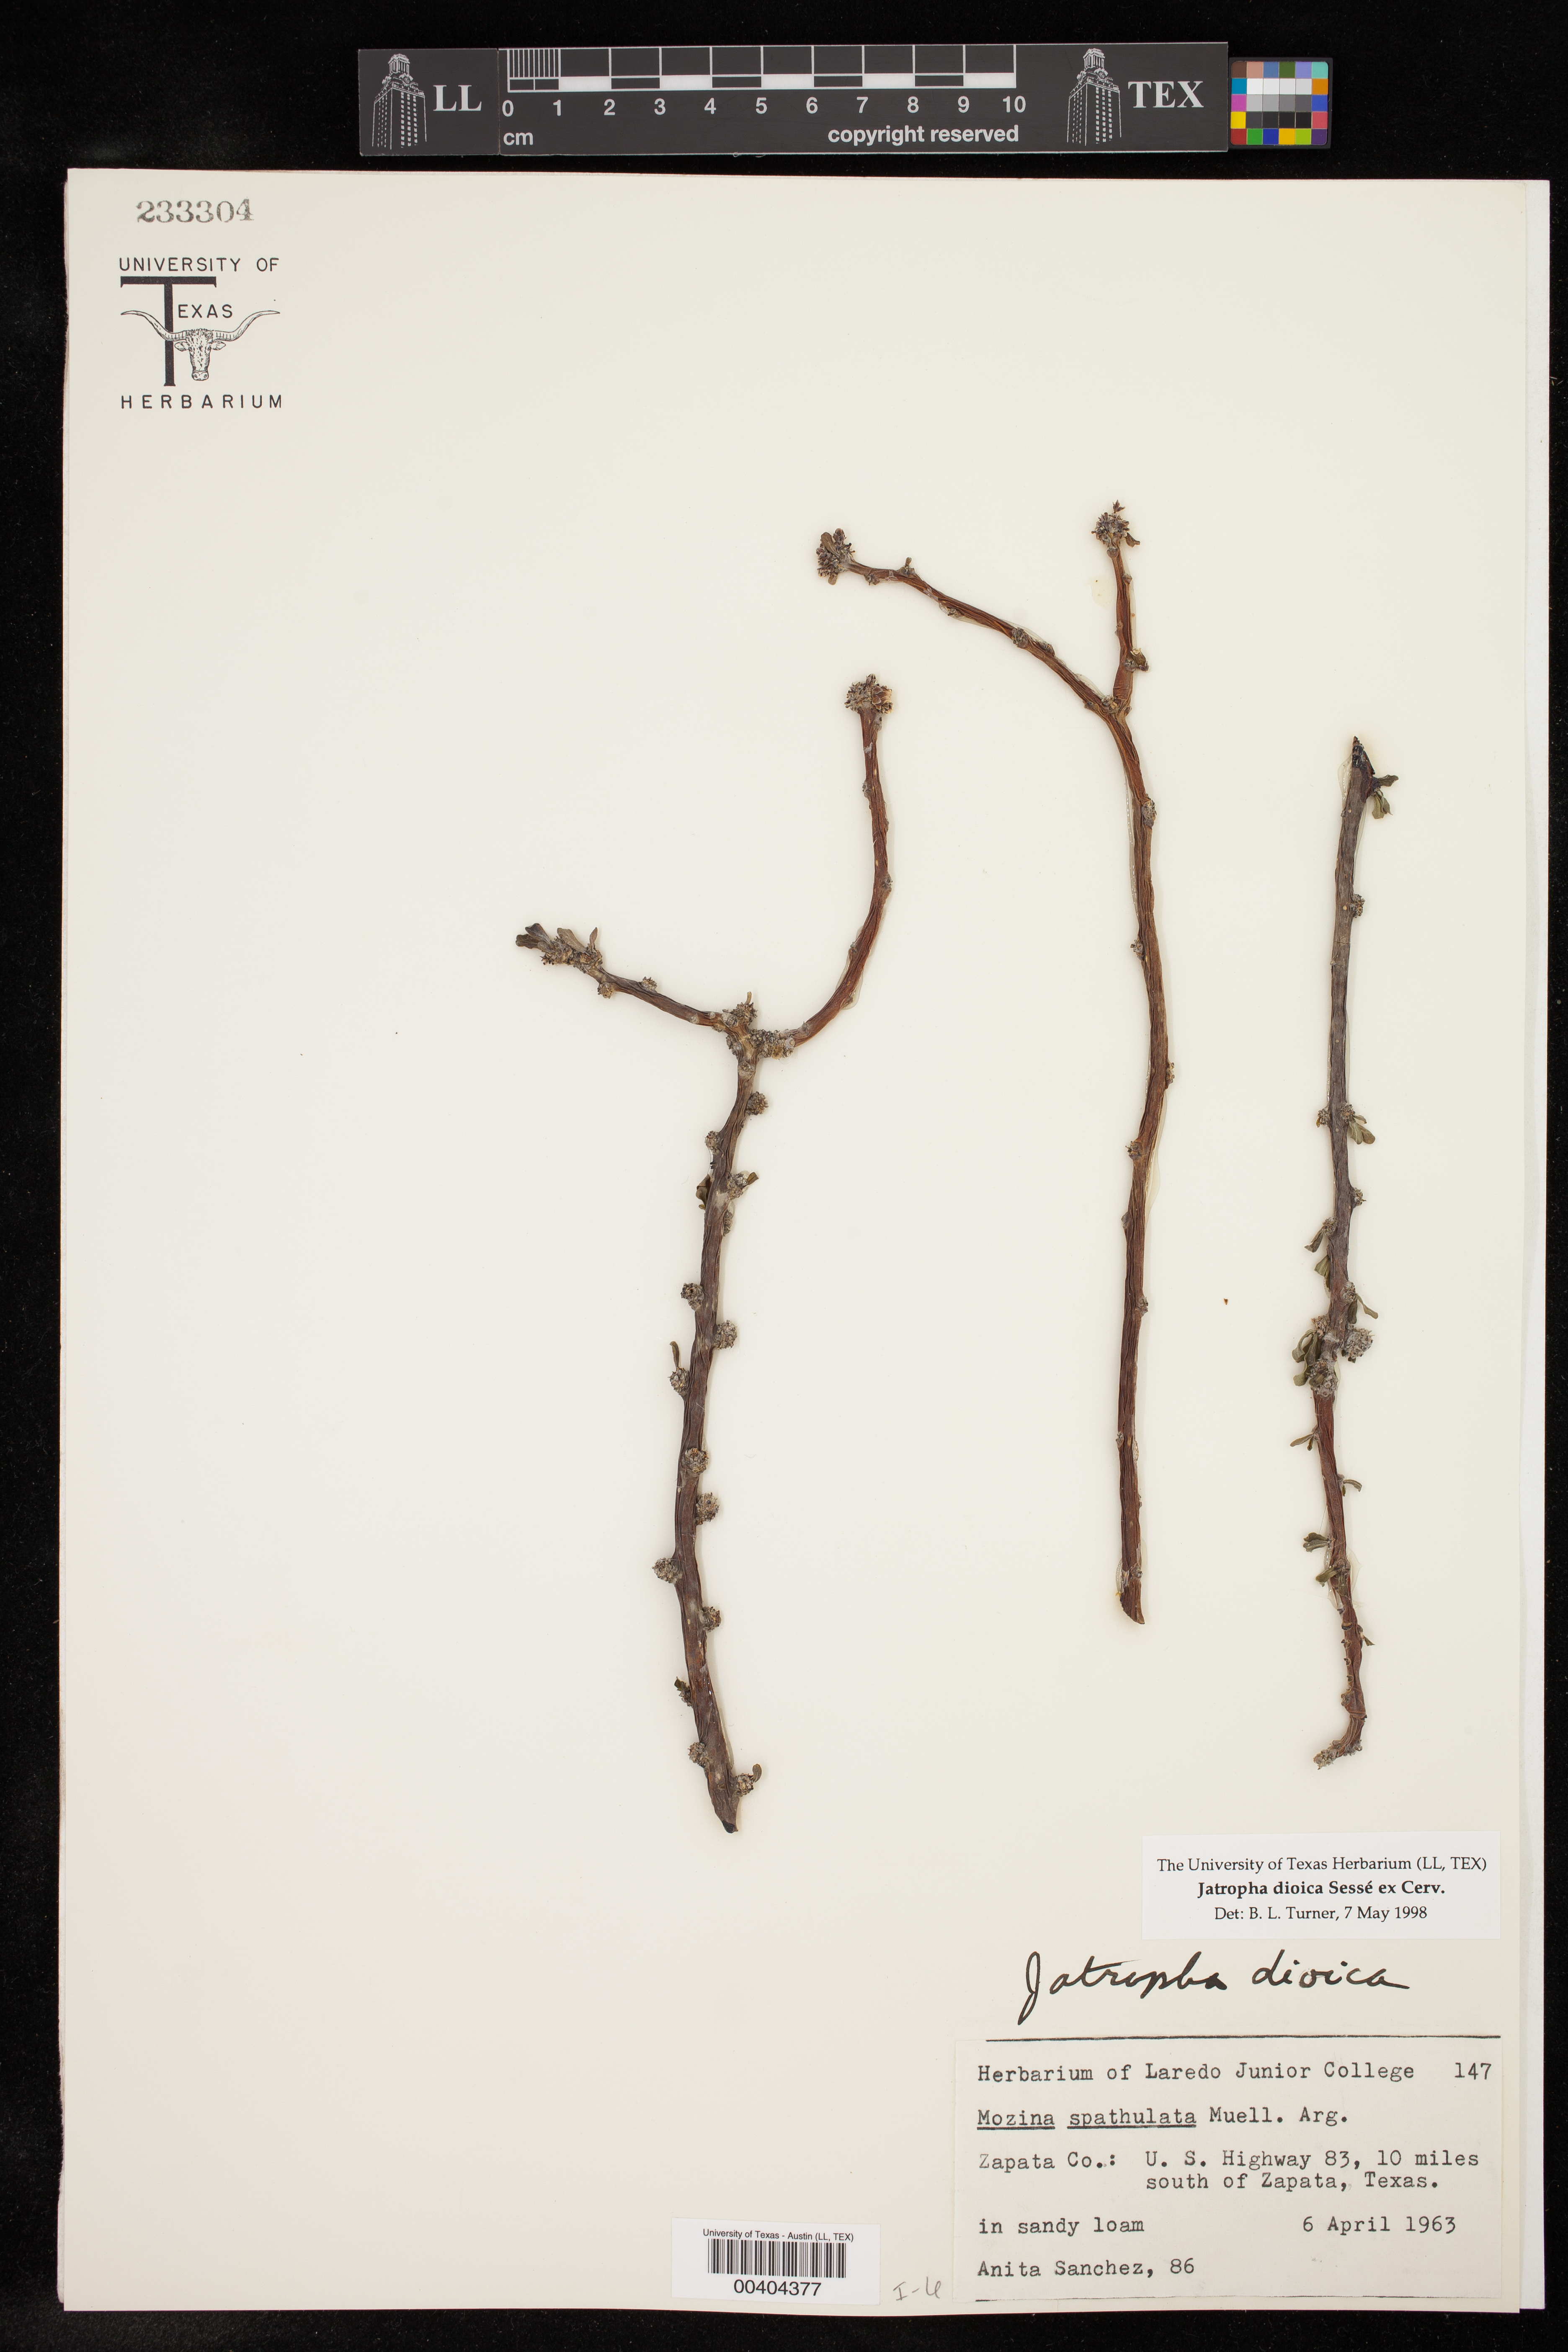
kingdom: Plantae
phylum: Tracheophyta
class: Magnoliopsida
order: Malpighiales
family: Euphorbiaceae
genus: Jatropha
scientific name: Jatropha dioica
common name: Leatherstem
